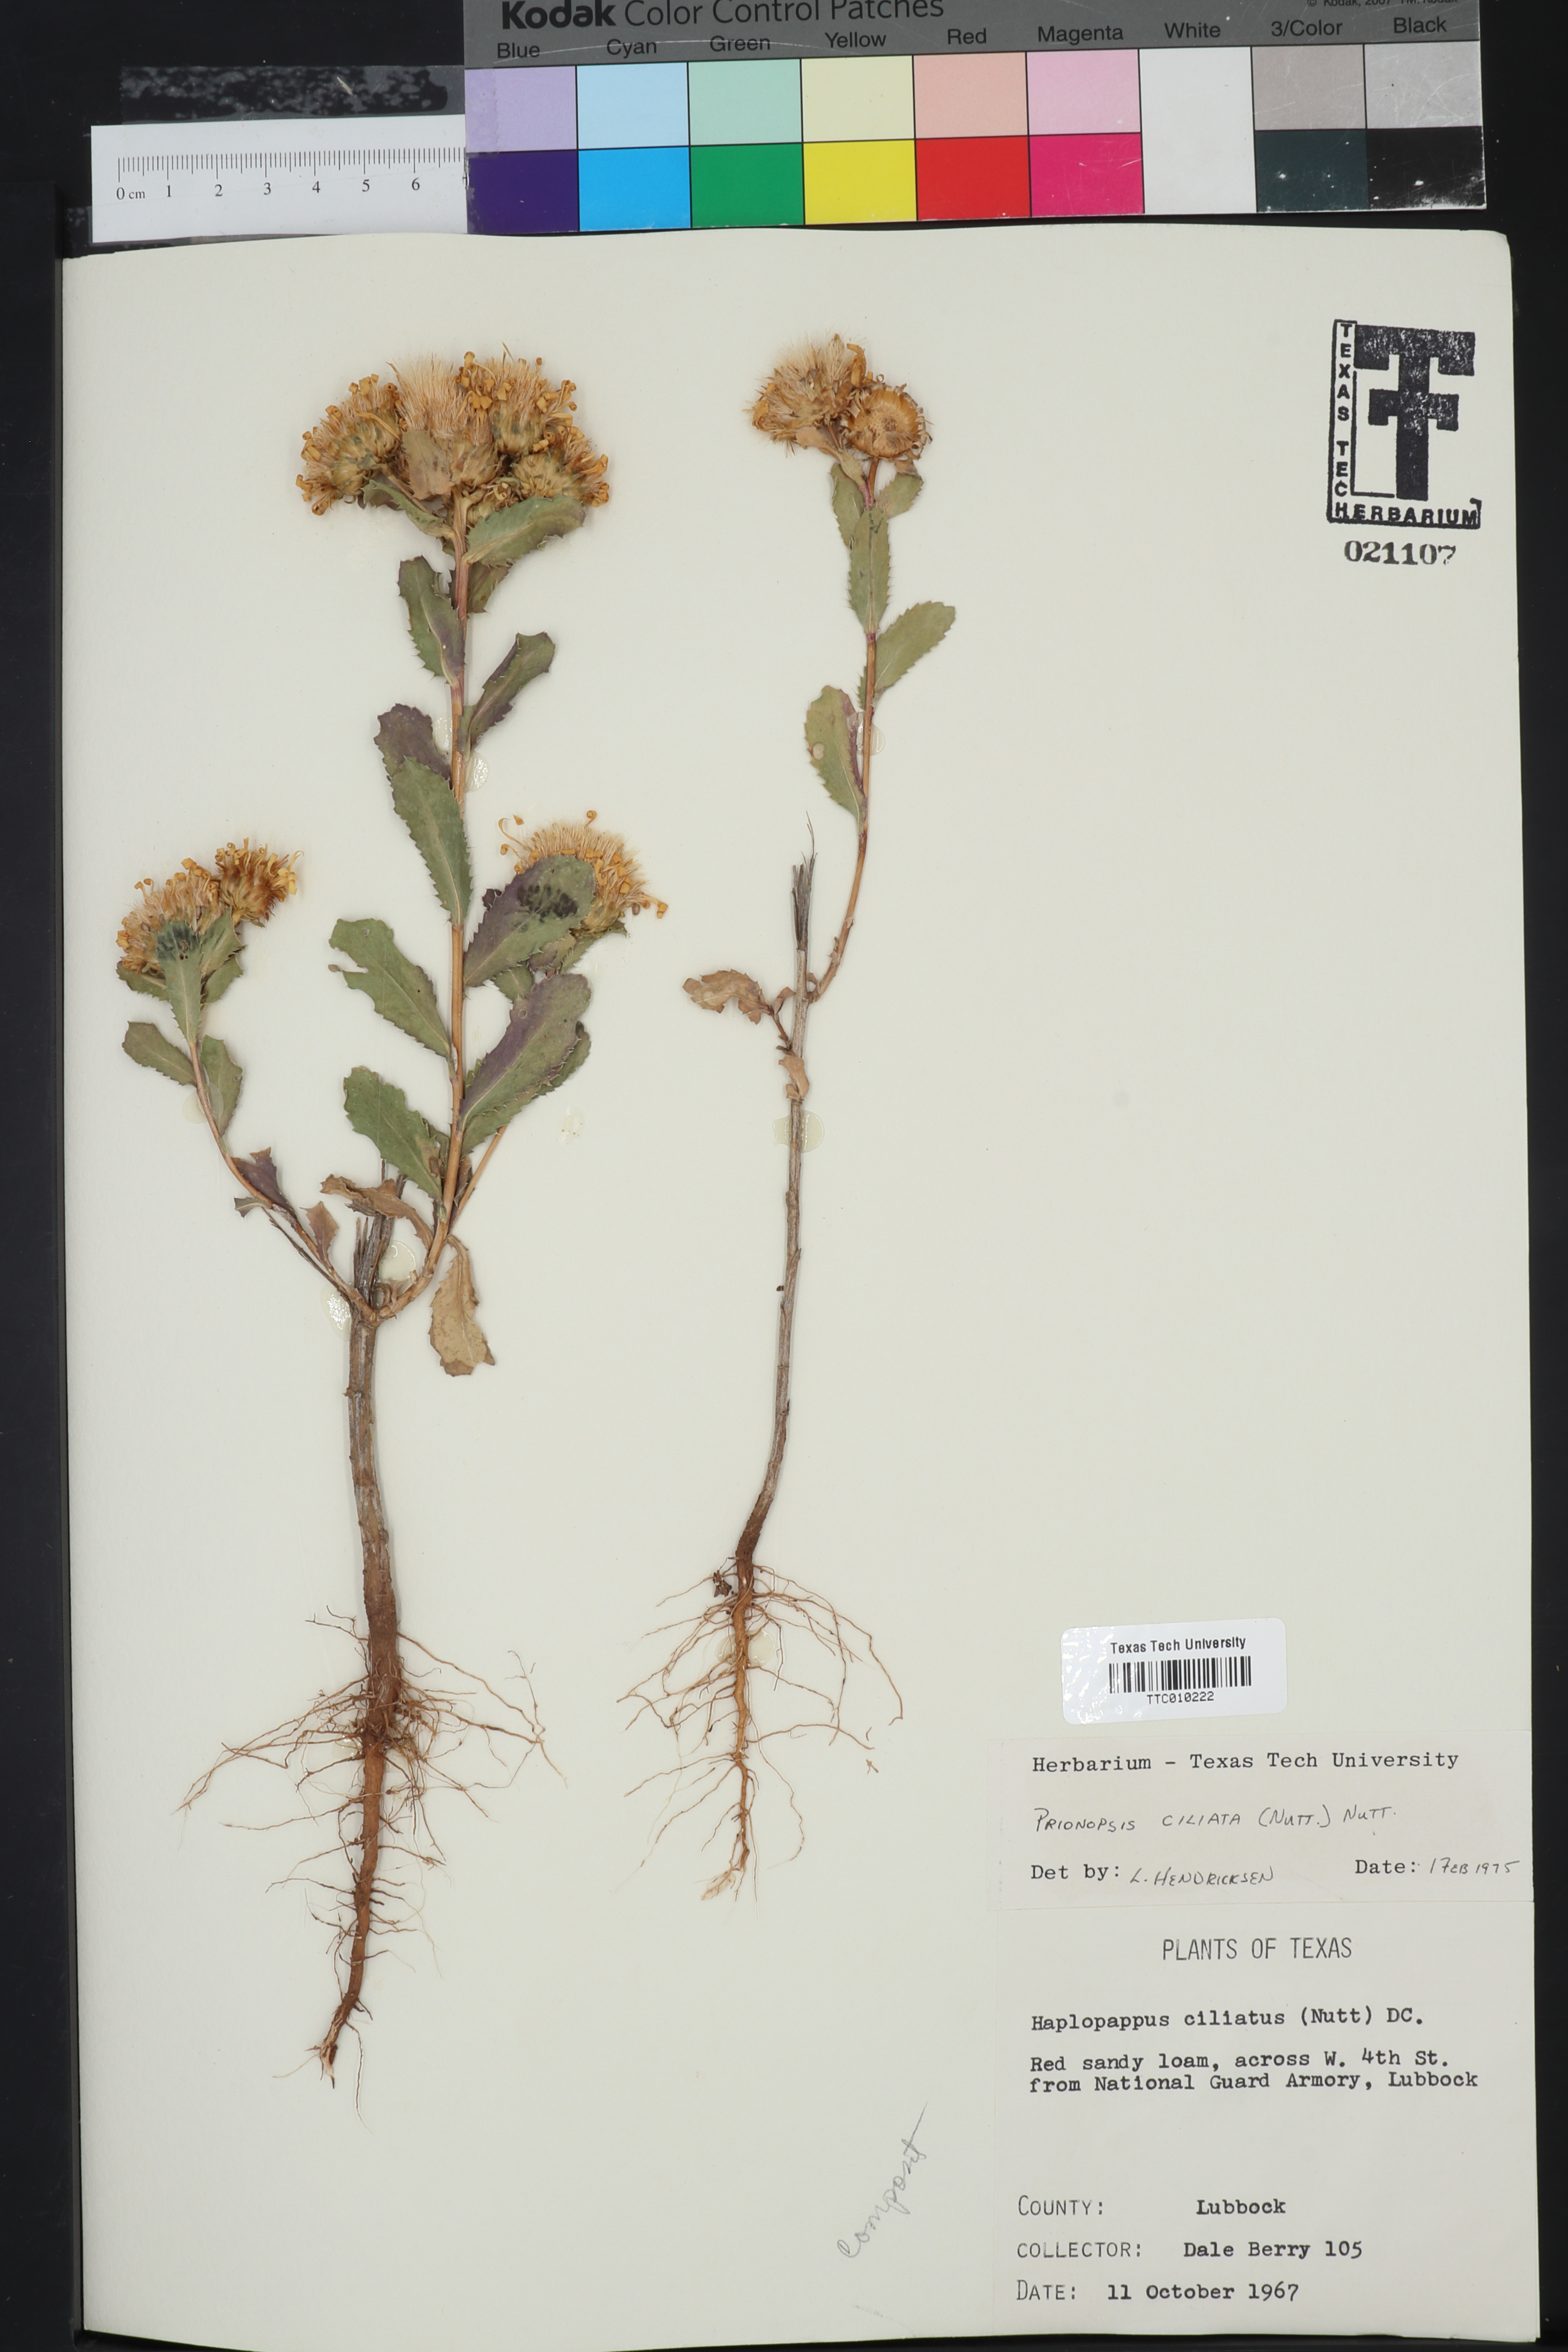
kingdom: Plantae
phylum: Tracheophyta
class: Magnoliopsida
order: Asterales
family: Asteraceae
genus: Grindelia
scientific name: Grindelia ciliata
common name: Goldenweed
